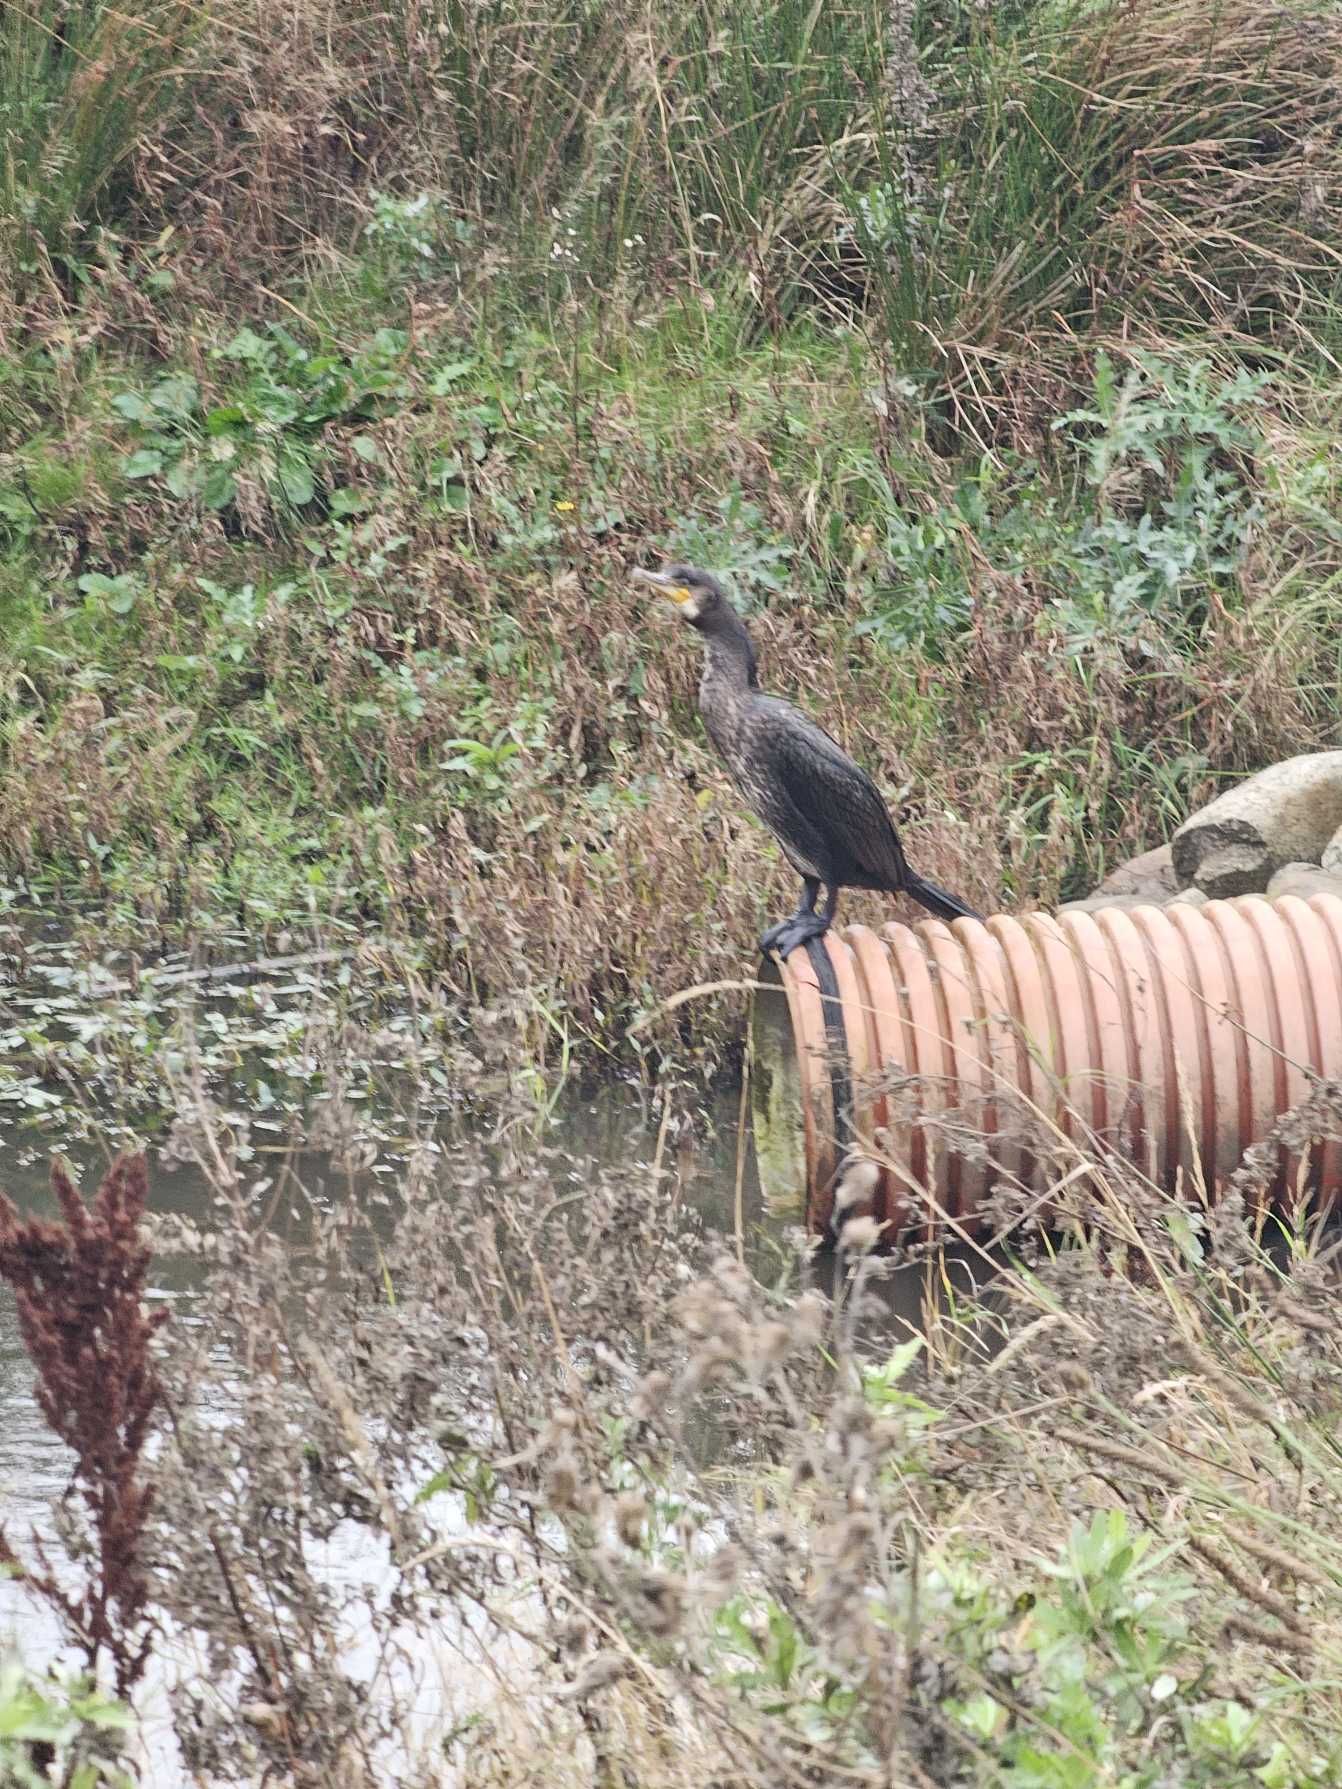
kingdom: Animalia
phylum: Chordata
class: Aves
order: Suliformes
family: Phalacrocoracidae
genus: Phalacrocorax
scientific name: Phalacrocorax carbo
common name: Skarv
